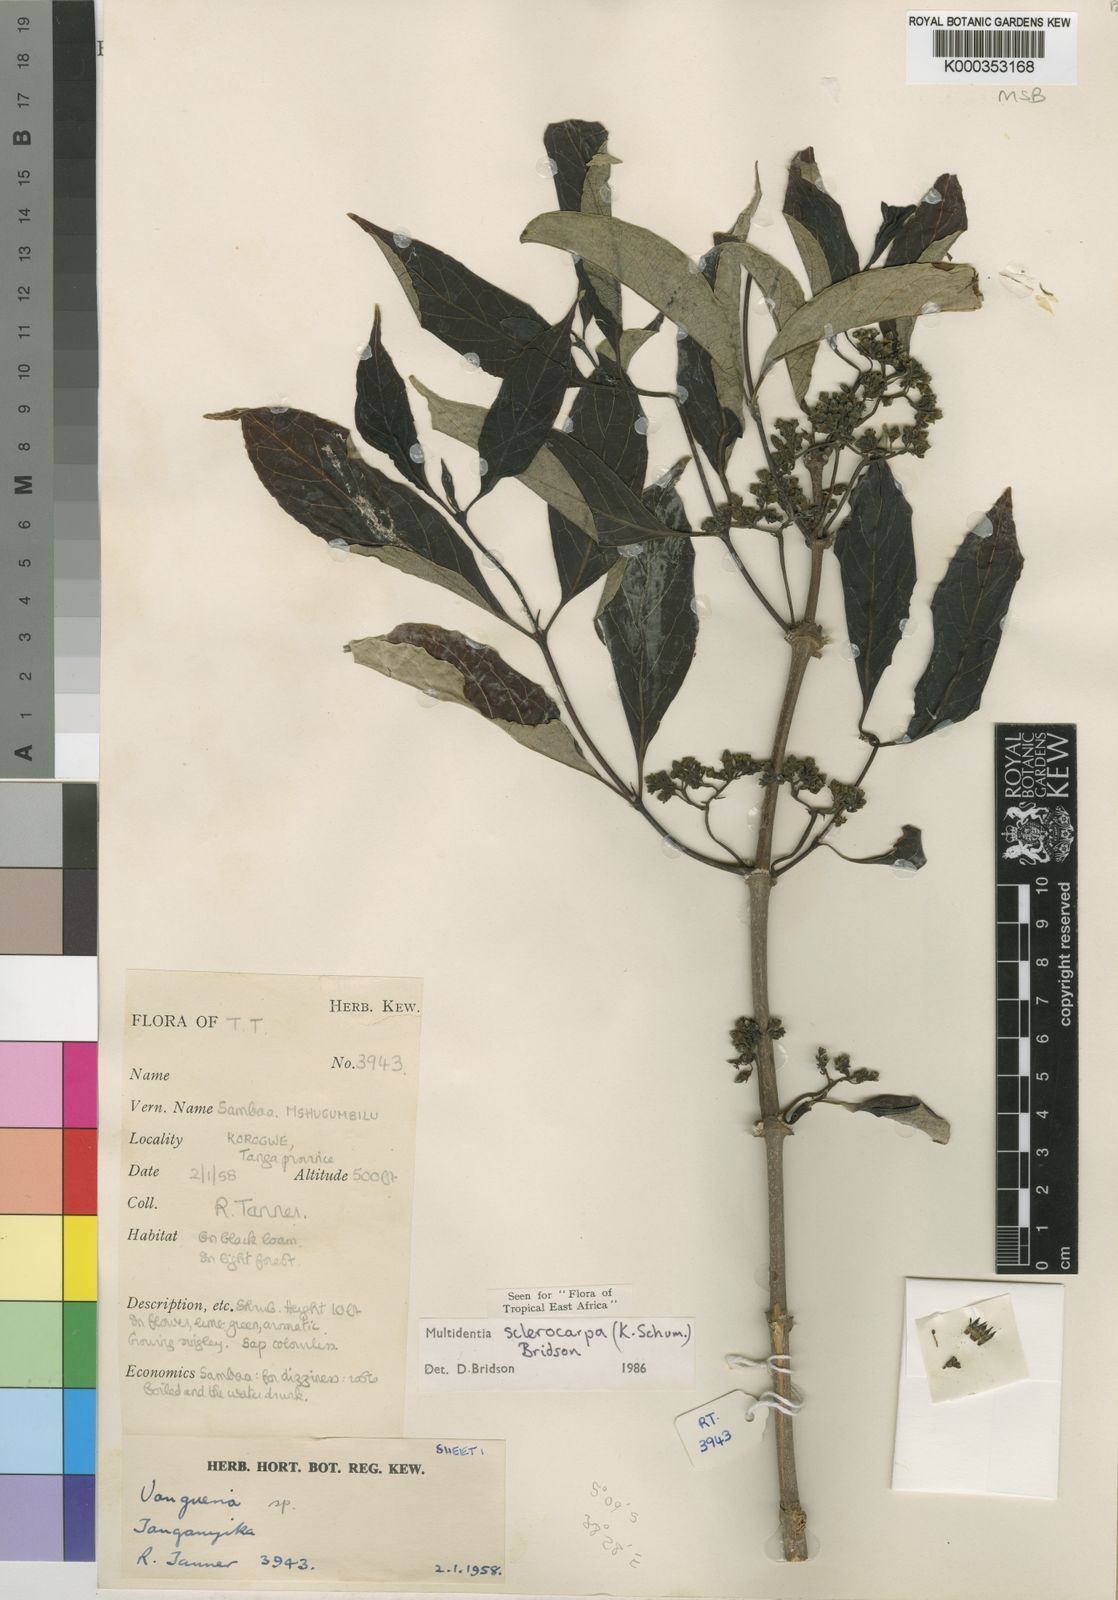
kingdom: Plantae
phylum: Tracheophyta
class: Magnoliopsida
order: Gentianales
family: Rubiaceae
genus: Multidentia
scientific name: Multidentia sclerocarpa
